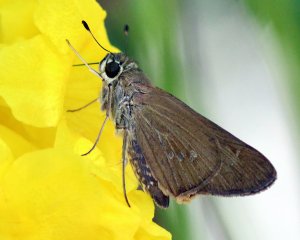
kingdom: Animalia
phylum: Arthropoda
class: Insecta
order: Lepidoptera
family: Hesperiidae
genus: Calpodes
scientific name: Calpodes ethlius
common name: Brazilian Skipper
